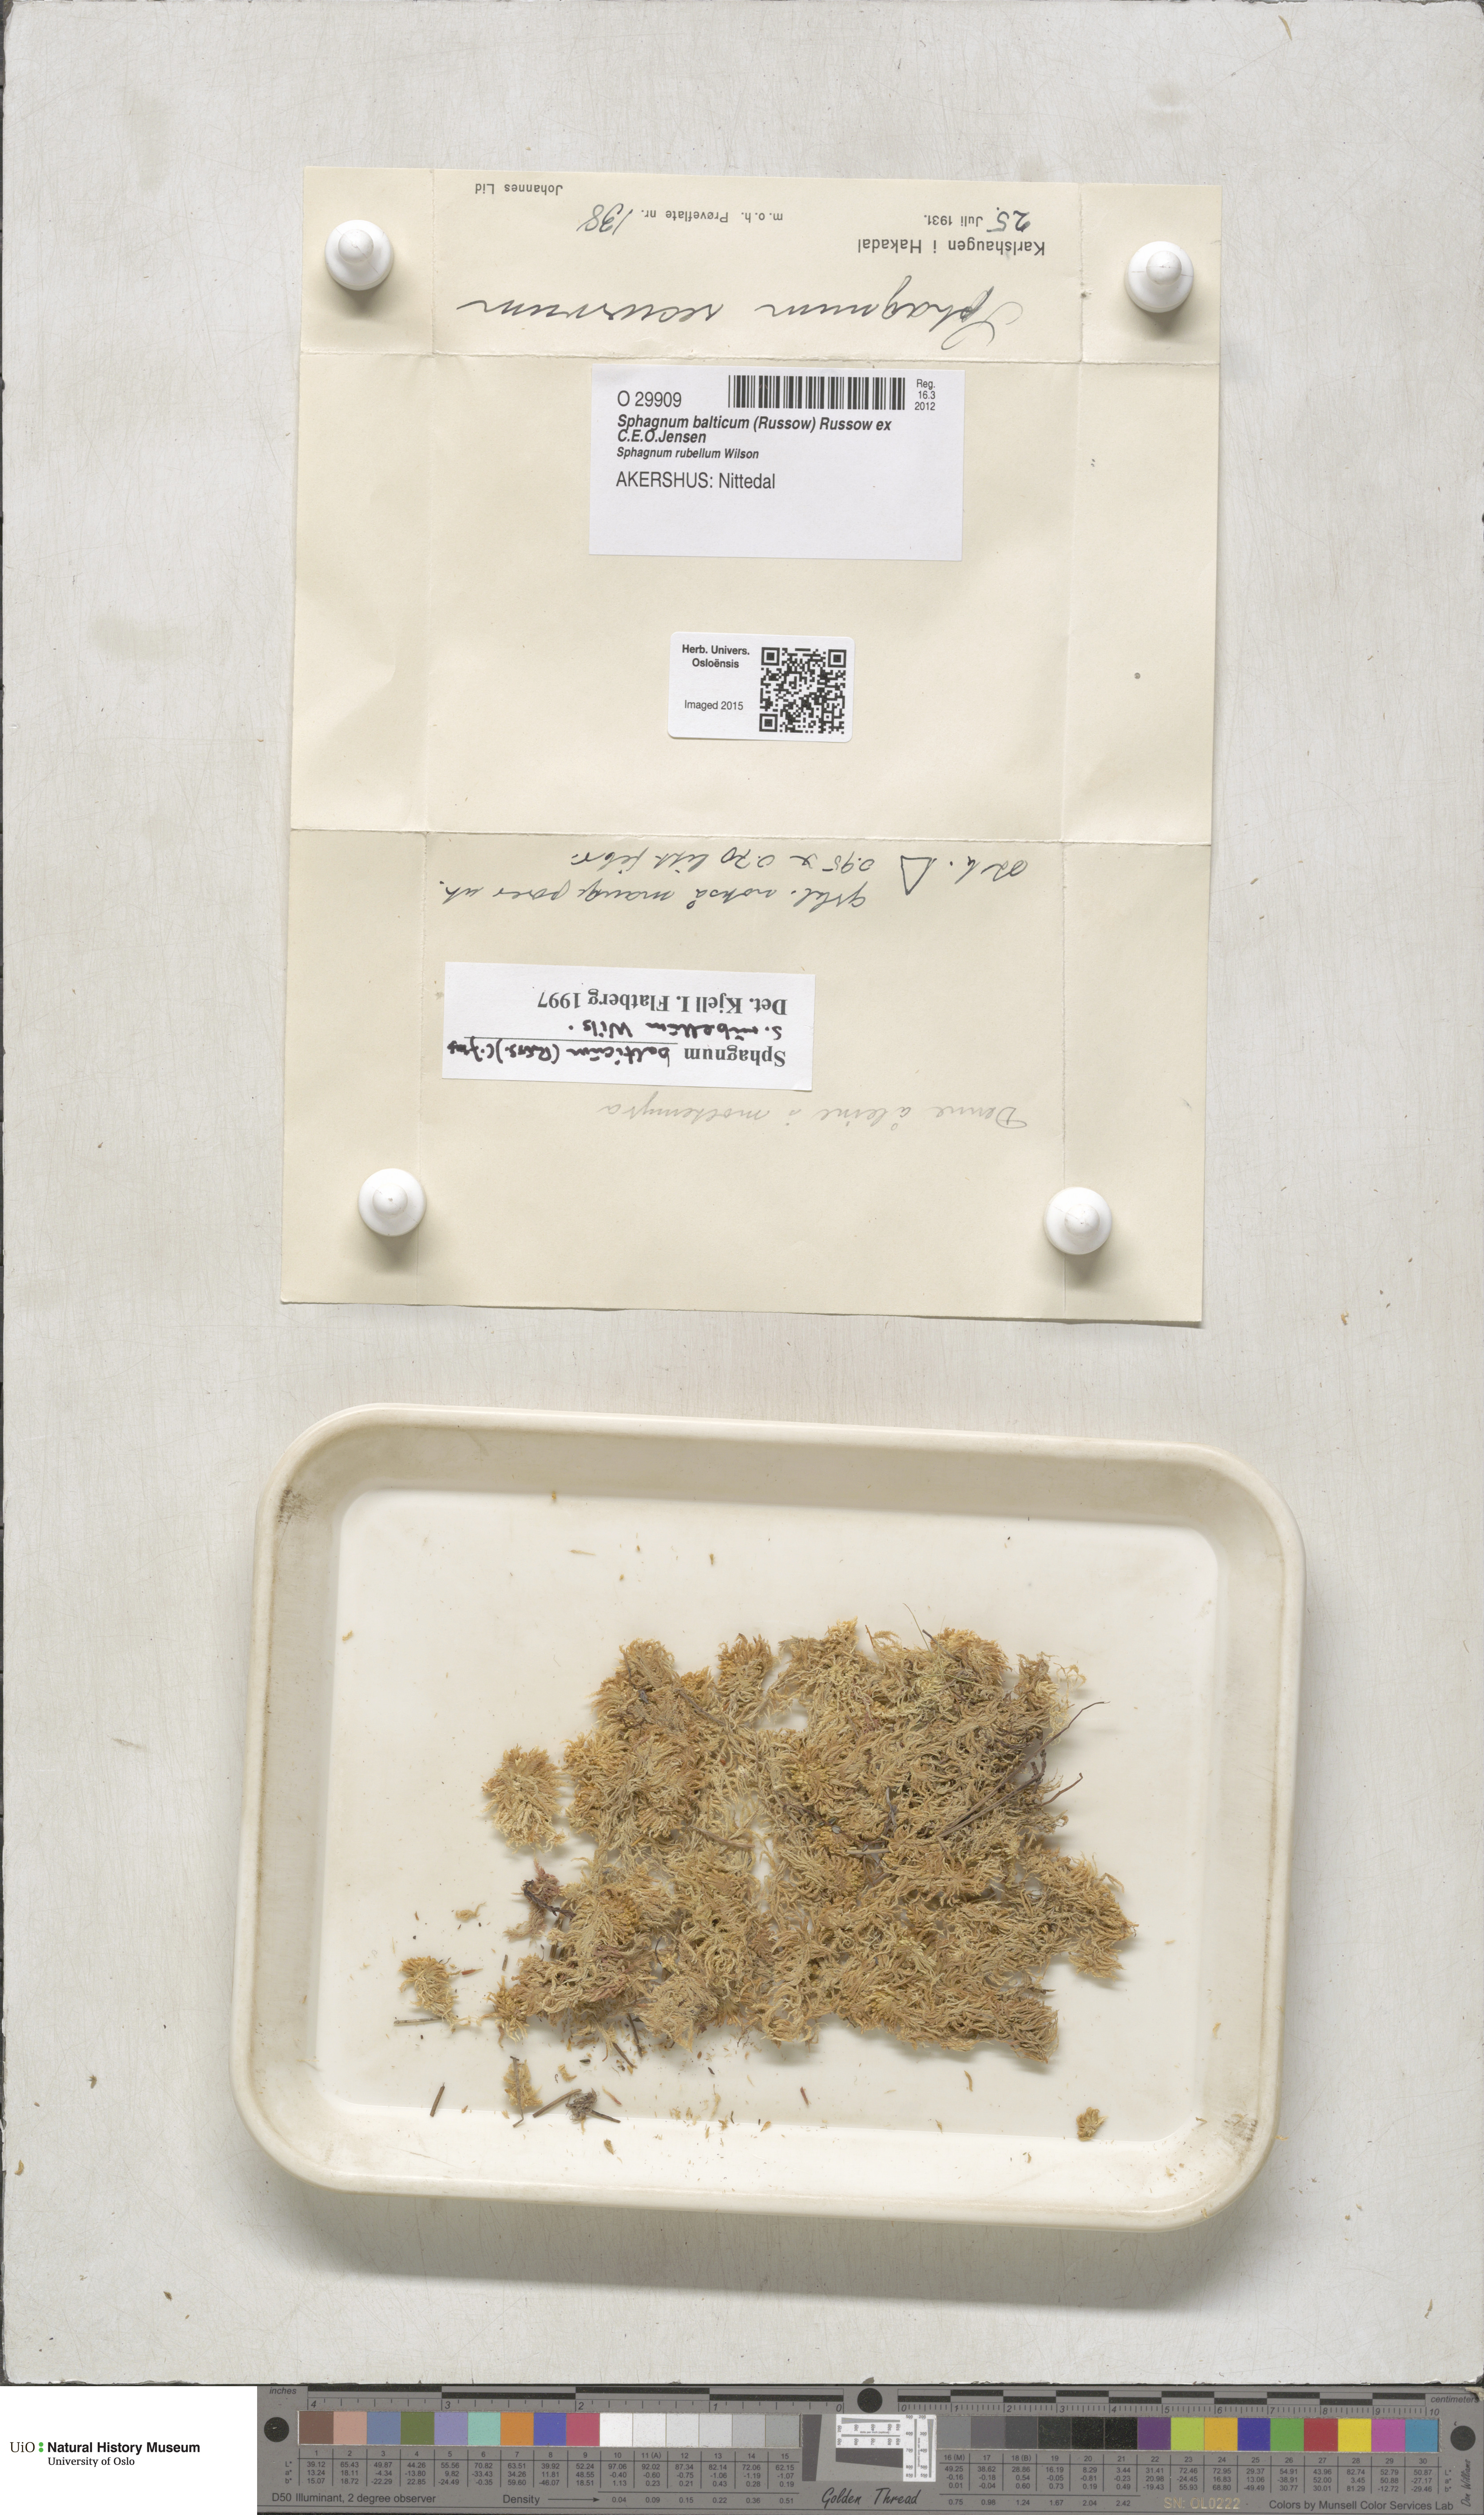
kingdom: Plantae
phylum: Bryophyta
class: Sphagnopsida
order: Sphagnales
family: Sphagnaceae
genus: Sphagnum
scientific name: Sphagnum balticum
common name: Baltic bog-moss
